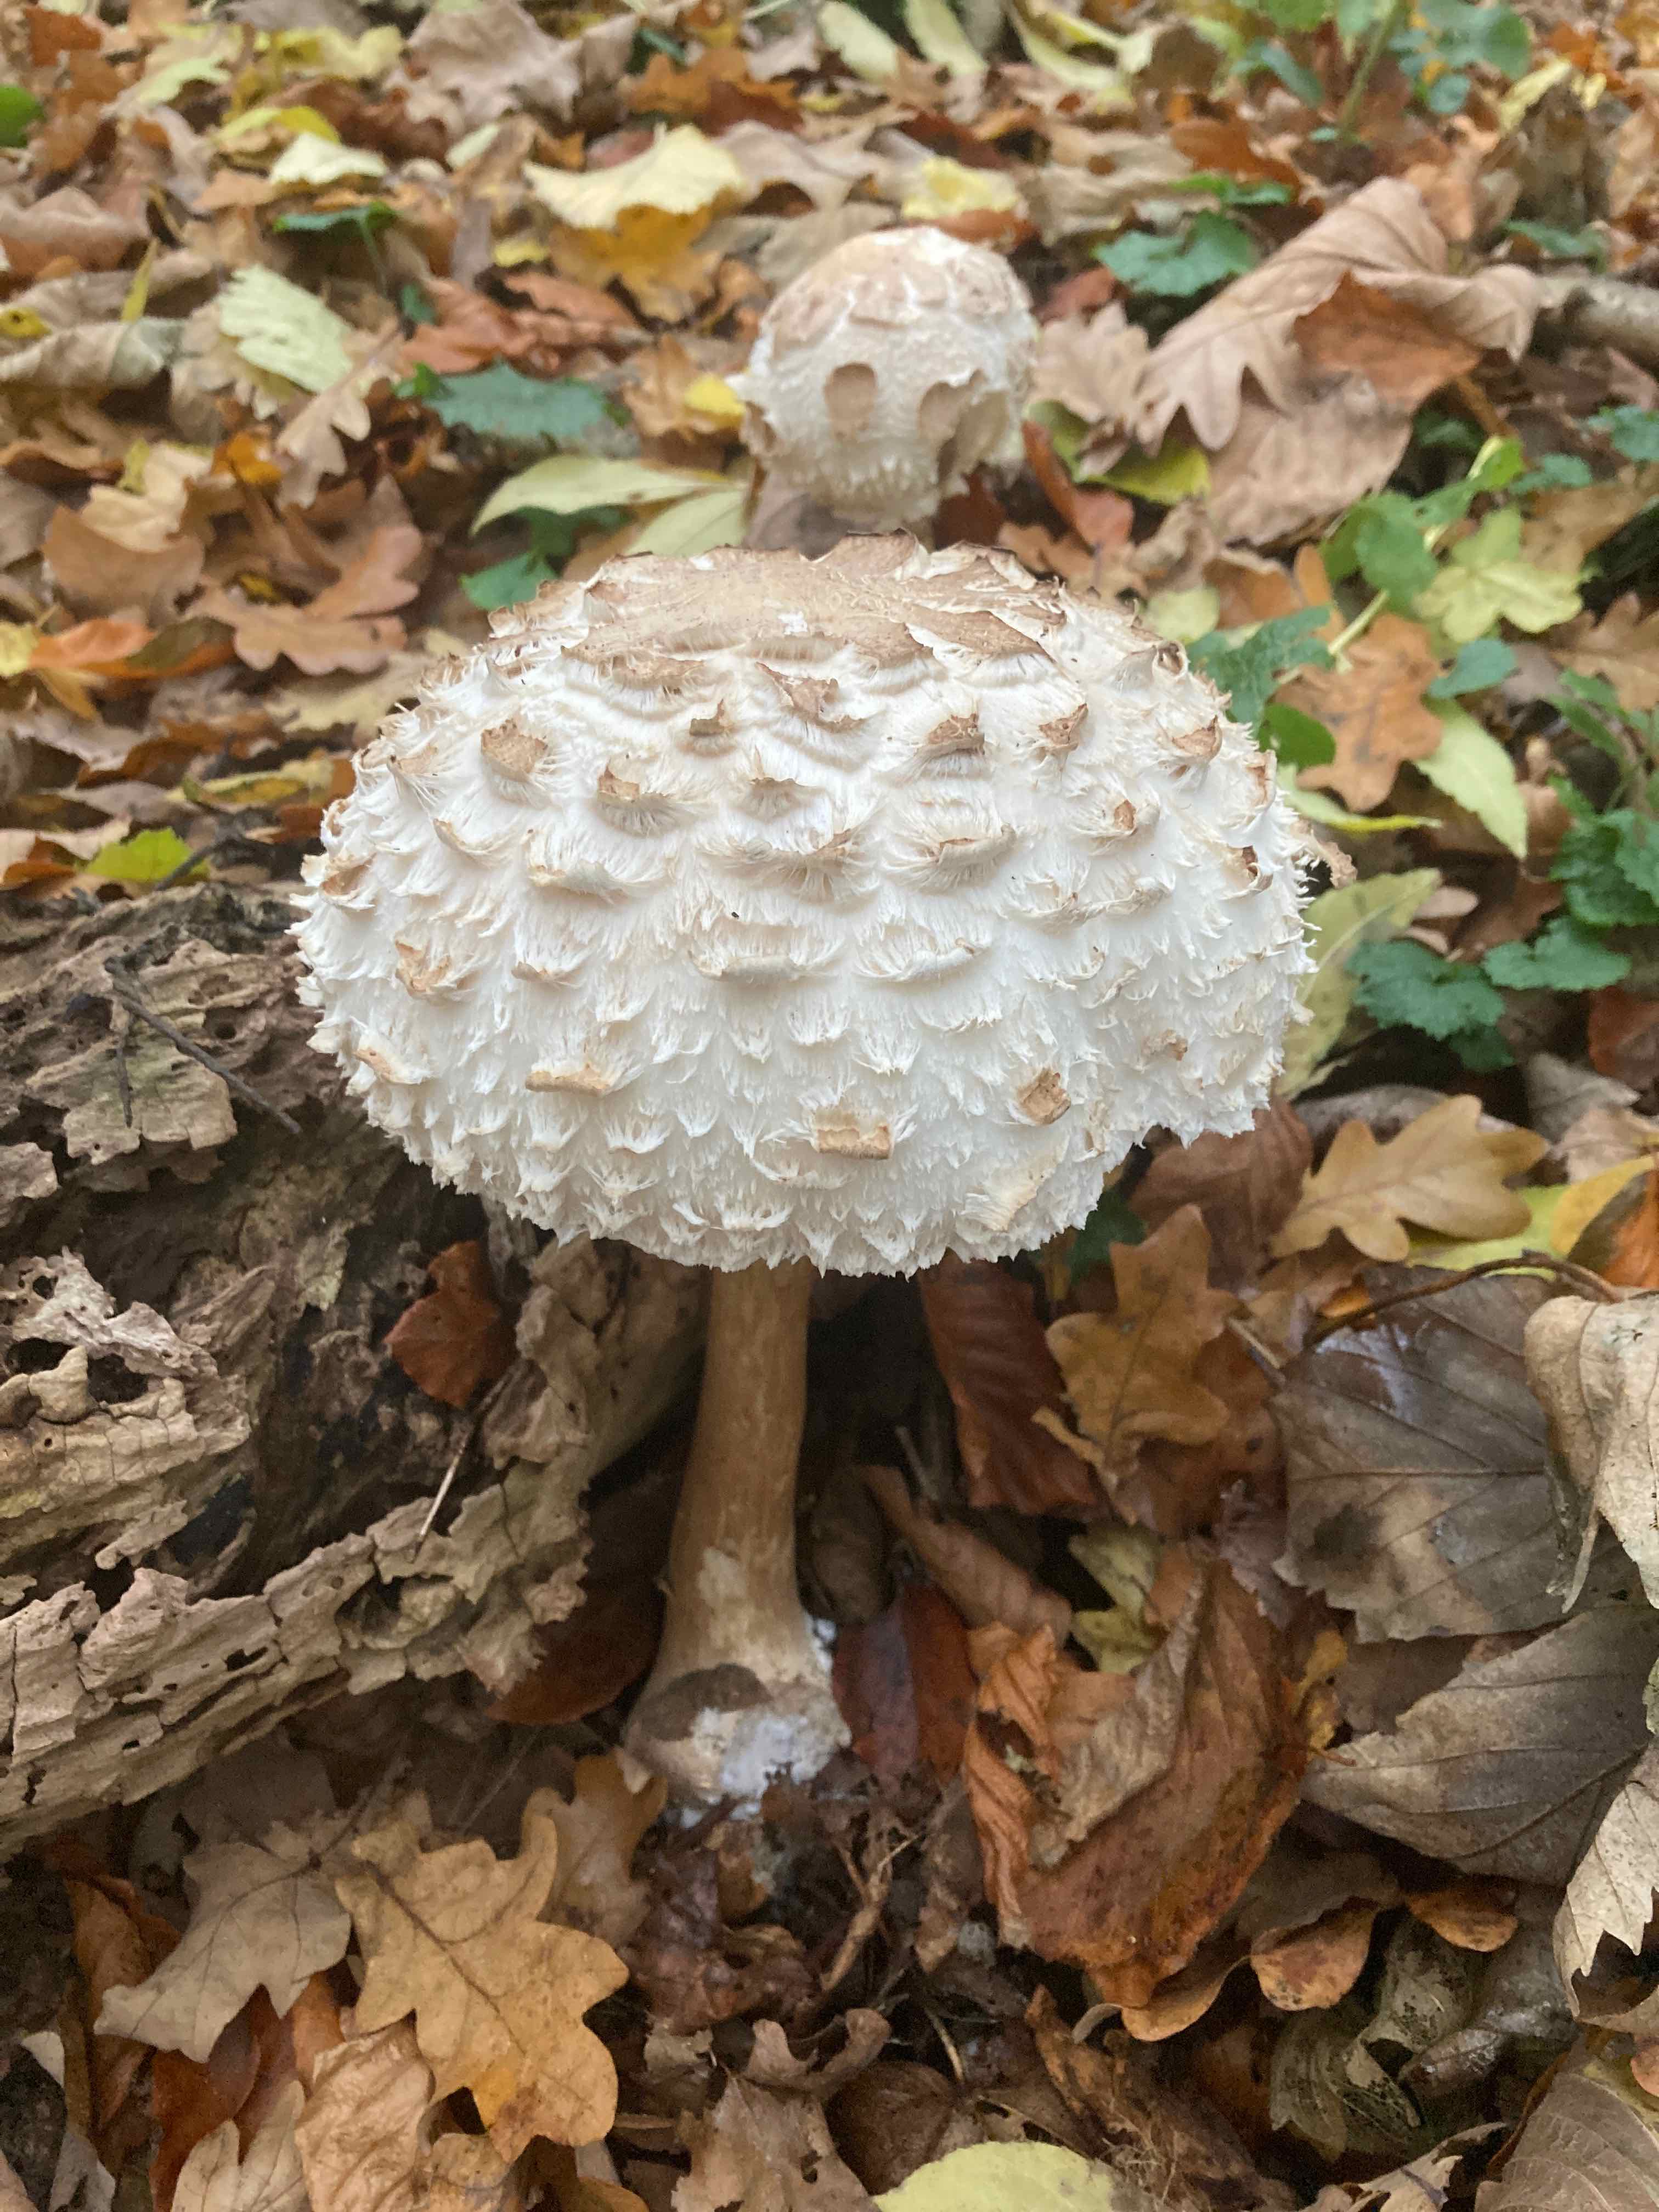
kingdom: Fungi
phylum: Basidiomycota
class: Agaricomycetes
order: Agaricales
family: Agaricaceae
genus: Chlorophyllum
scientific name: Chlorophyllum rhacodes
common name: ægte rabarberhat
